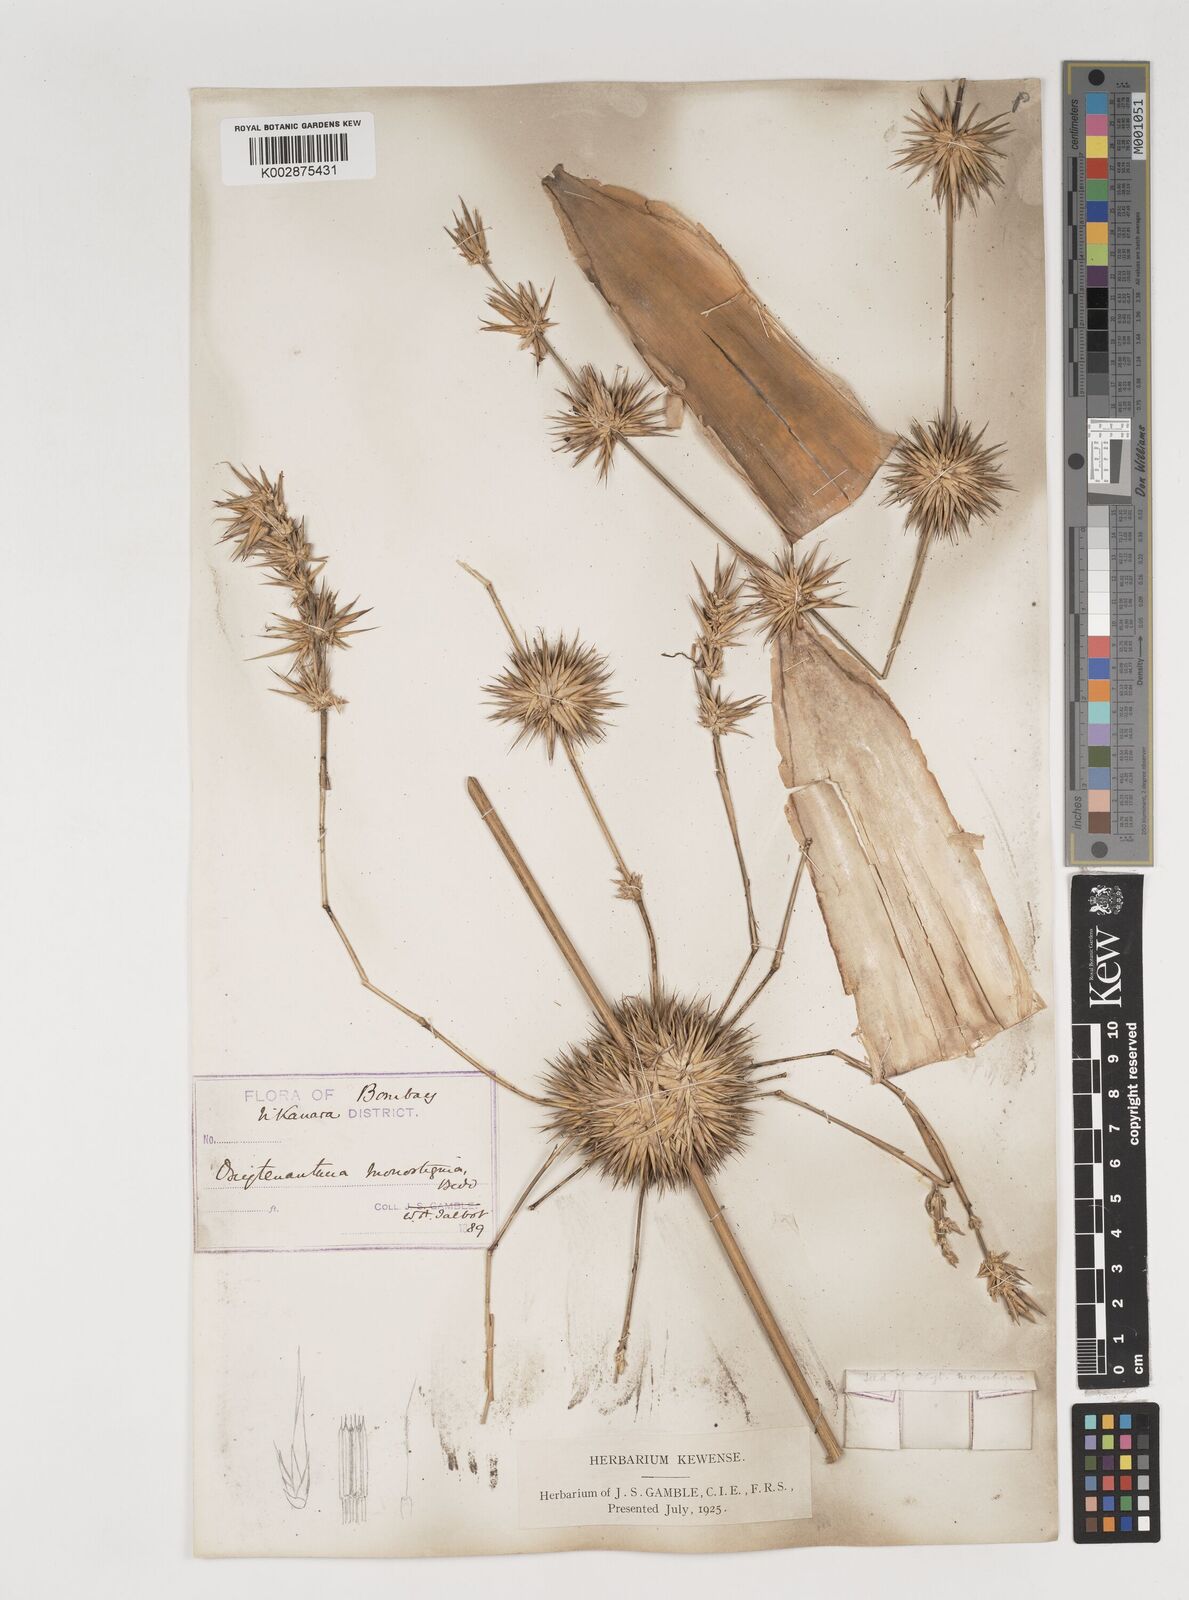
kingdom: Plantae
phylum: Tracheophyta
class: Liliopsida
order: Poales
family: Poaceae
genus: Dendrocalamus
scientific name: Dendrocalamus
